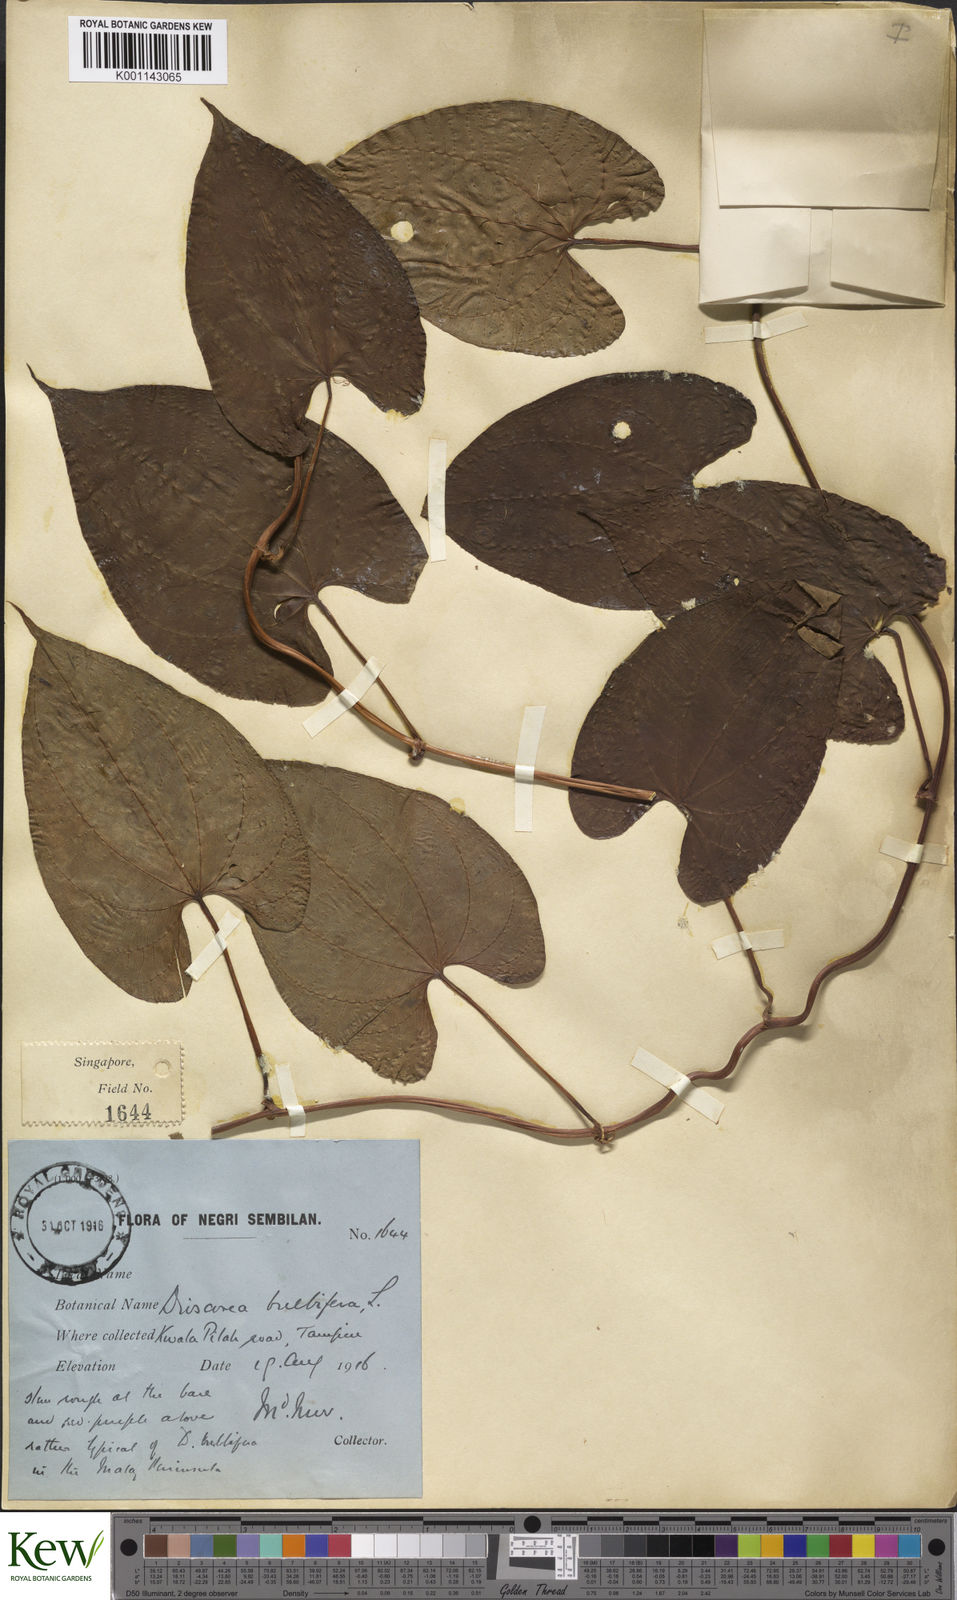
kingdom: Plantae
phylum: Tracheophyta
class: Liliopsida
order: Dioscoreales
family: Dioscoreaceae
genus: Dioscorea
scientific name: Dioscorea bulbifera
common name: Air yam
